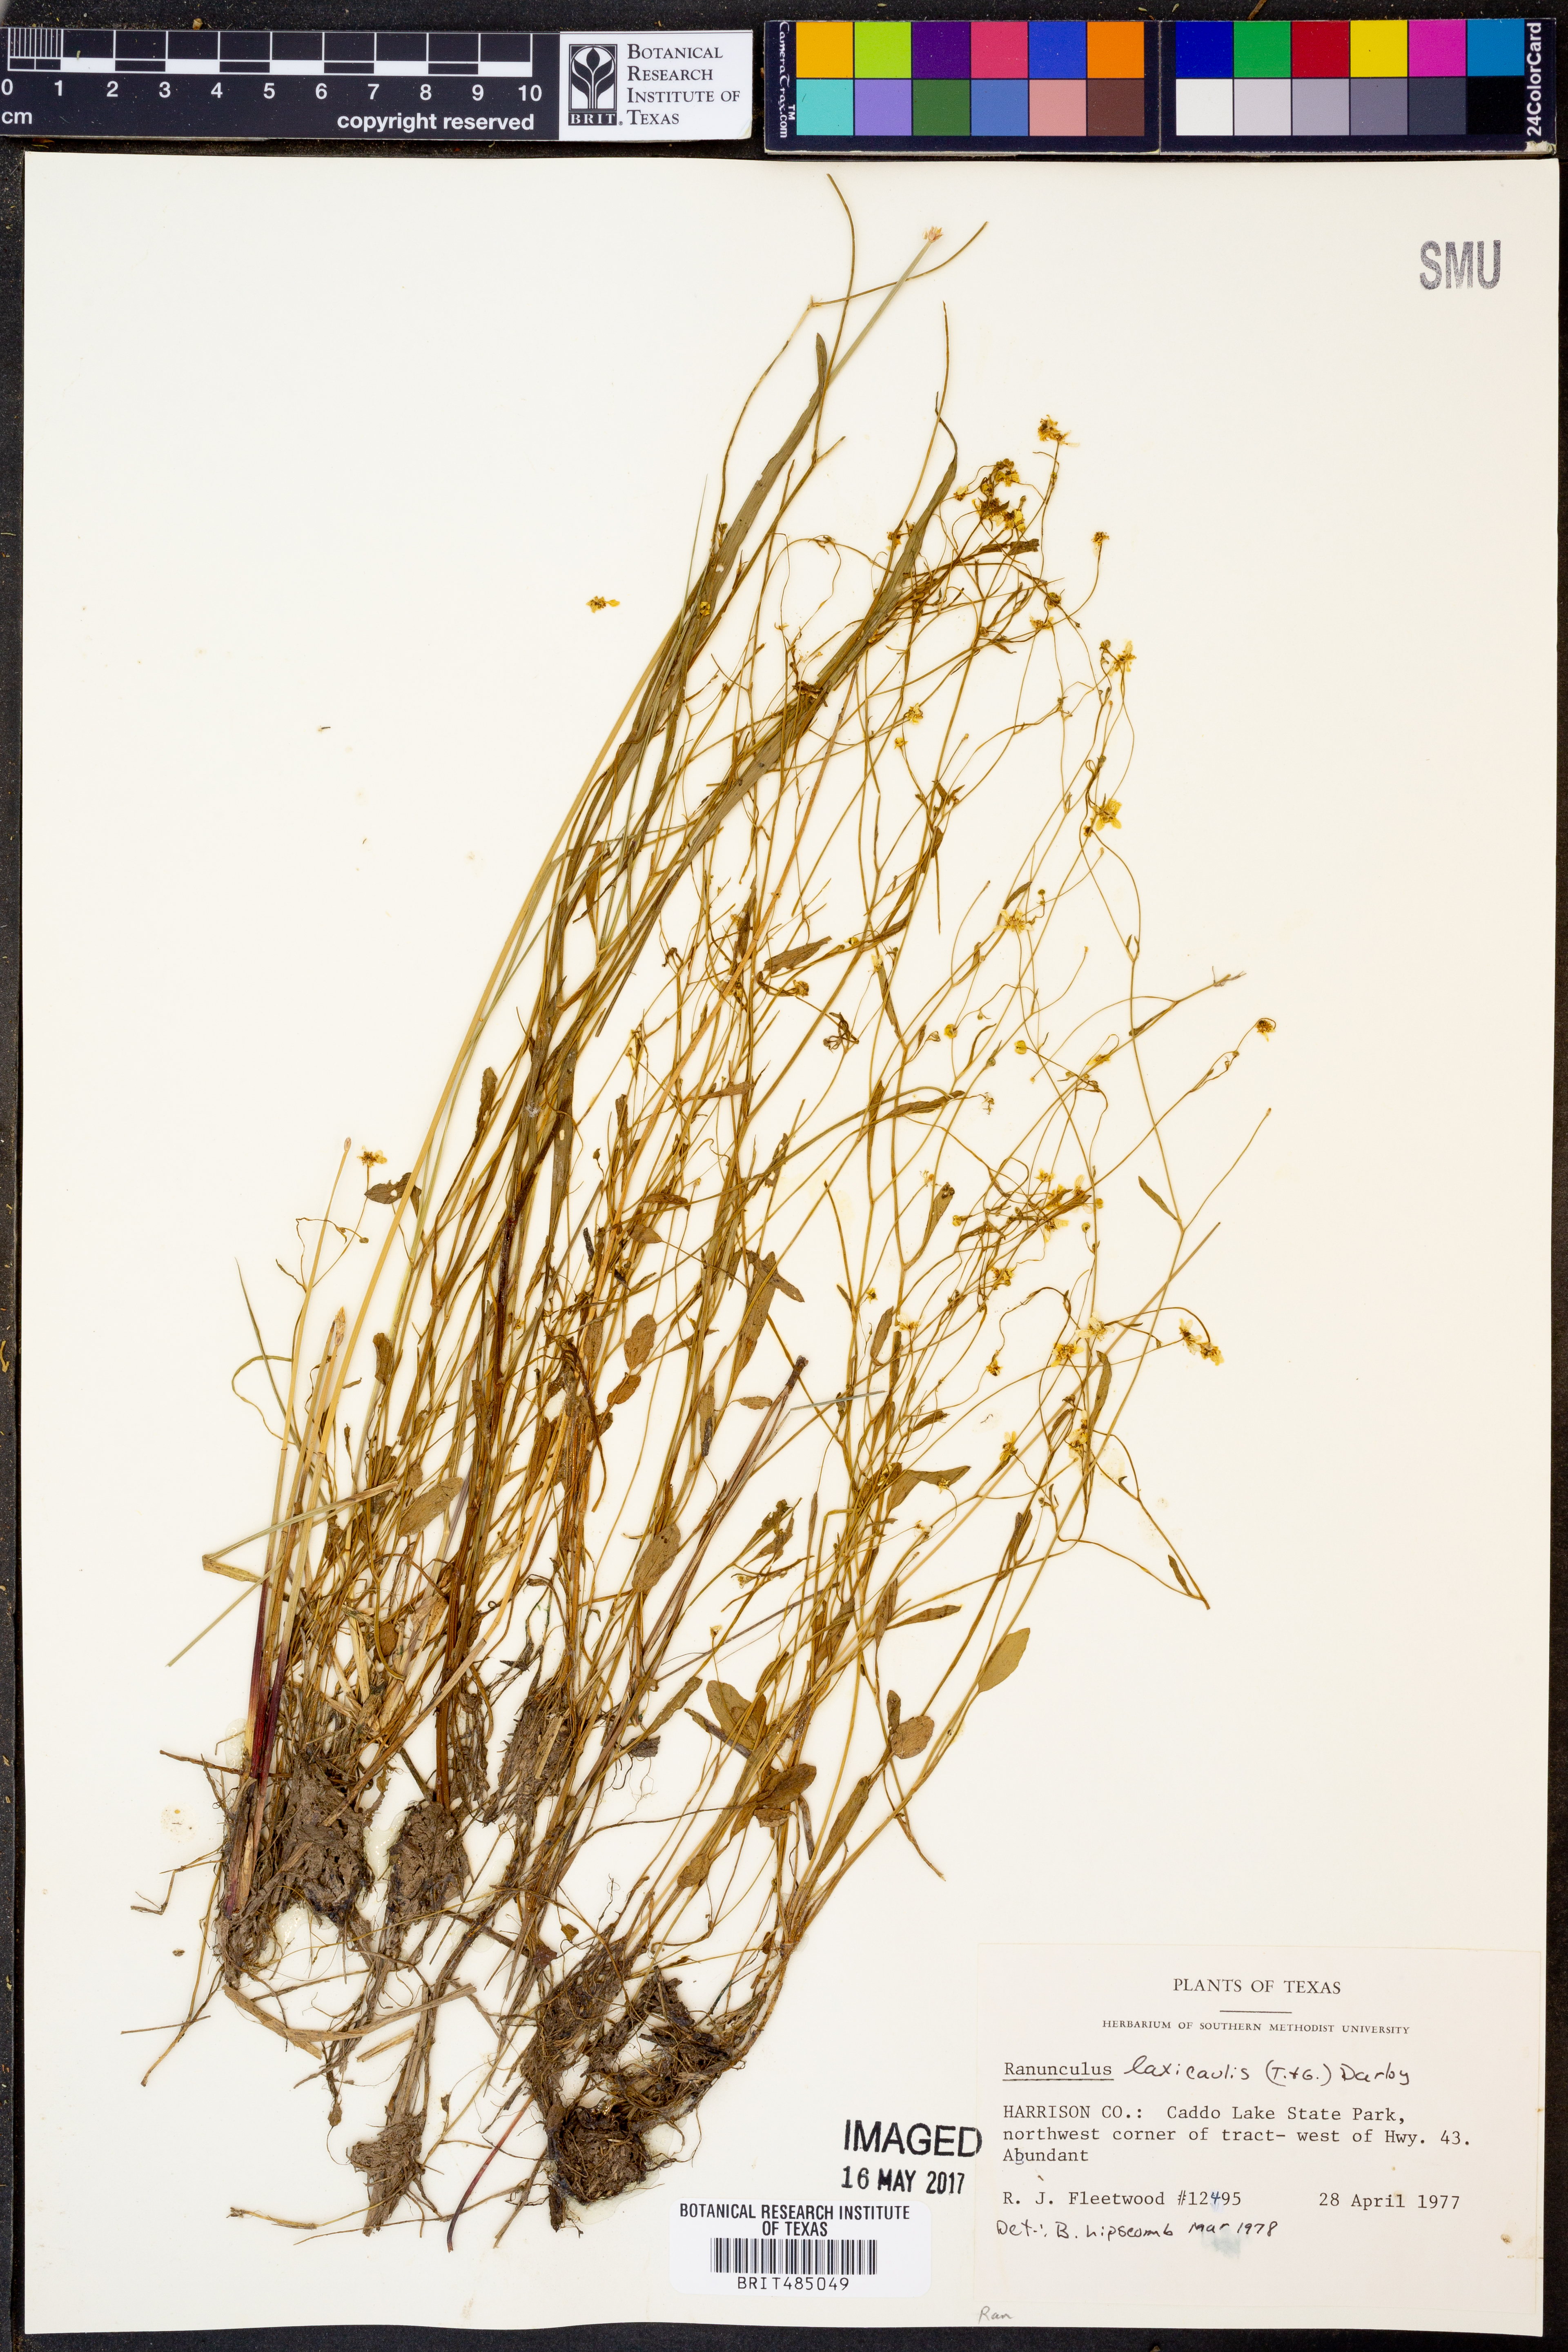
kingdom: Plantae
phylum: Tracheophyta
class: Magnoliopsida
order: Ranunculales
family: Ranunculaceae
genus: Ranunculus
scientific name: Ranunculus laxicaulis
